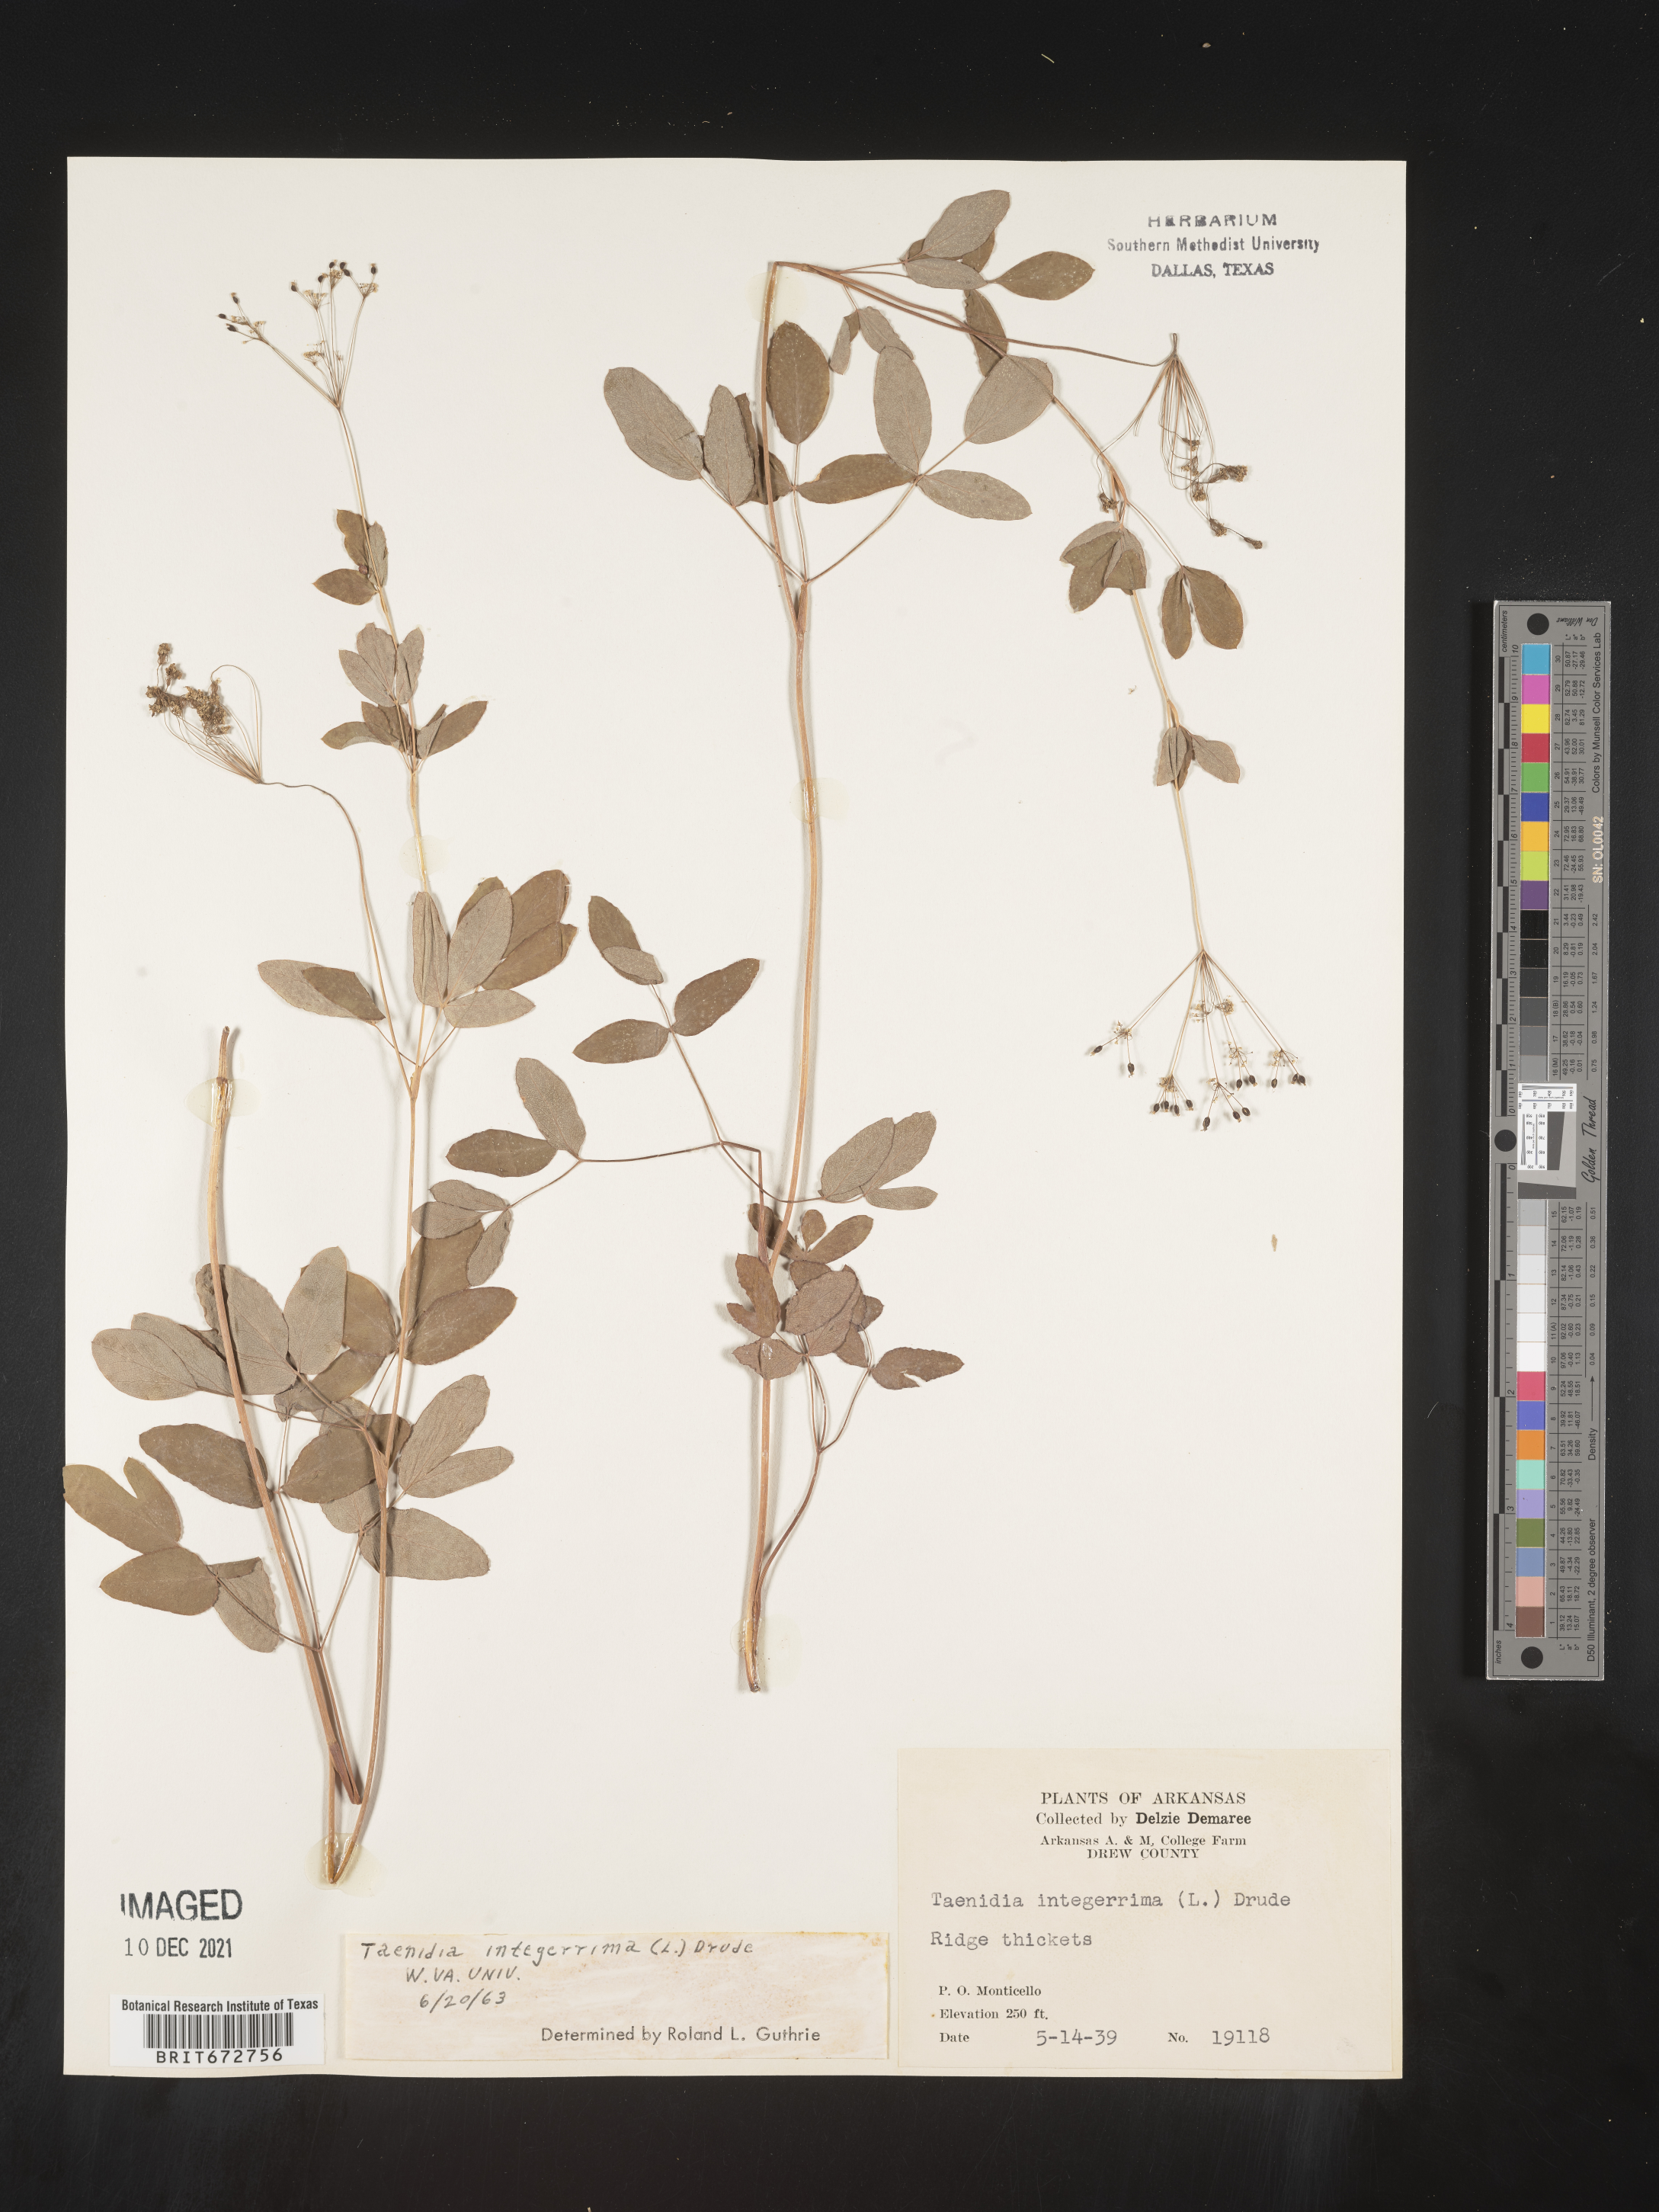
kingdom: Plantae
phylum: Tracheophyta
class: Magnoliopsida
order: Apiales
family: Apiaceae
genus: Taenidia
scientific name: Taenidia integerrima
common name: Golden alexander
